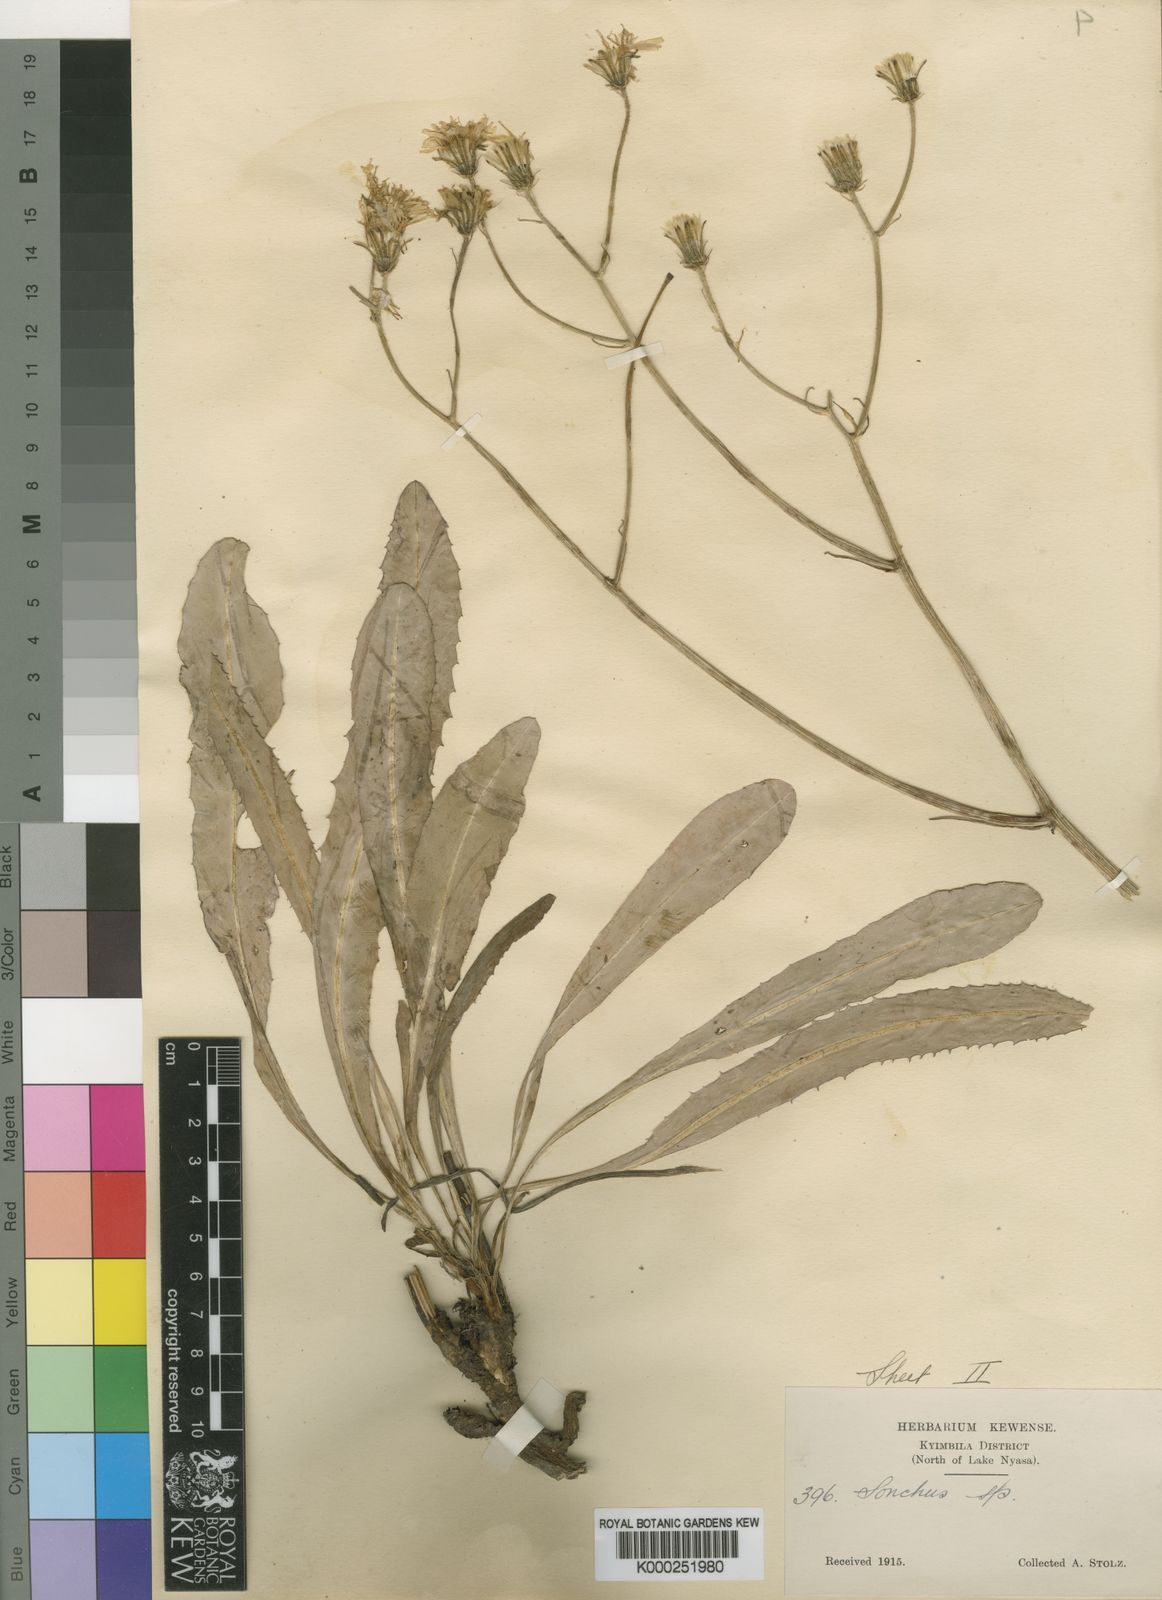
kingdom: Plantae
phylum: Tracheophyta
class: Magnoliopsida
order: Asterales
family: Asteraceae
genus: Crepis
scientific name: Crepis
